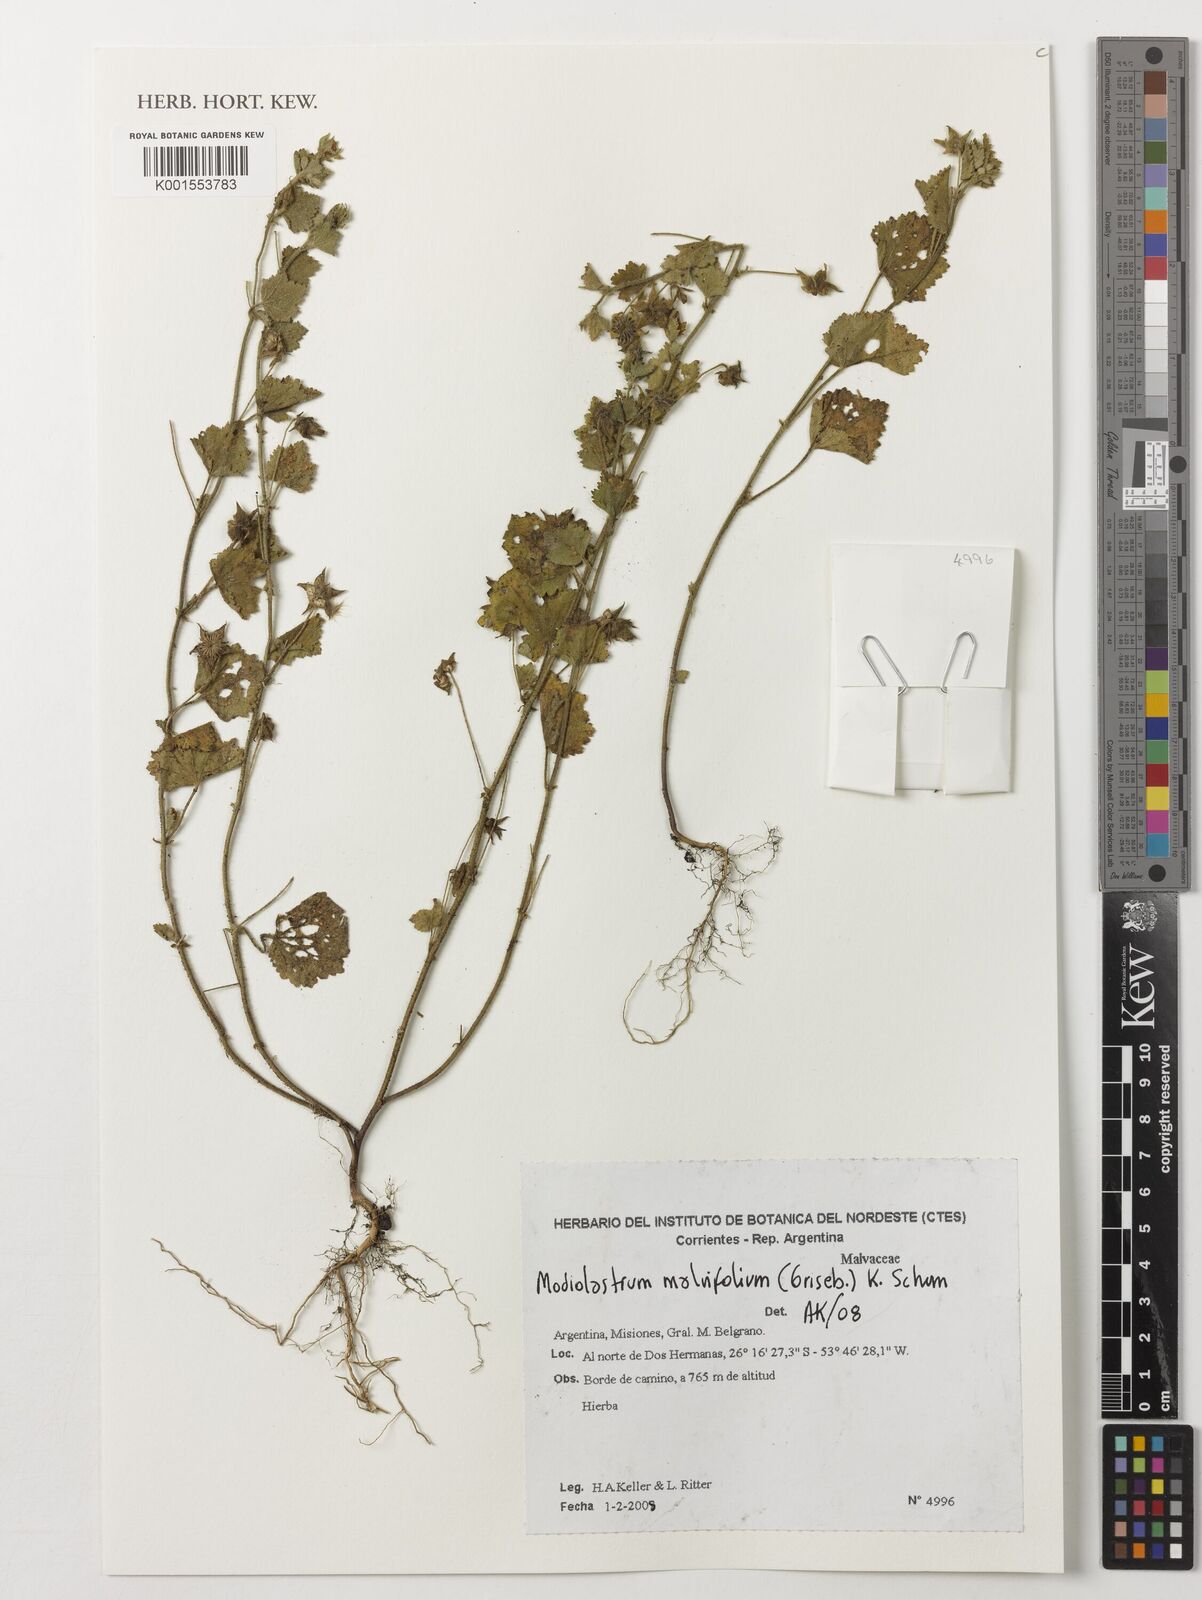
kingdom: Plantae
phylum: Tracheophyta
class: Magnoliopsida
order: Malvales
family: Malvaceae
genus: Modiolastrum
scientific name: Modiolastrum malvifolium
